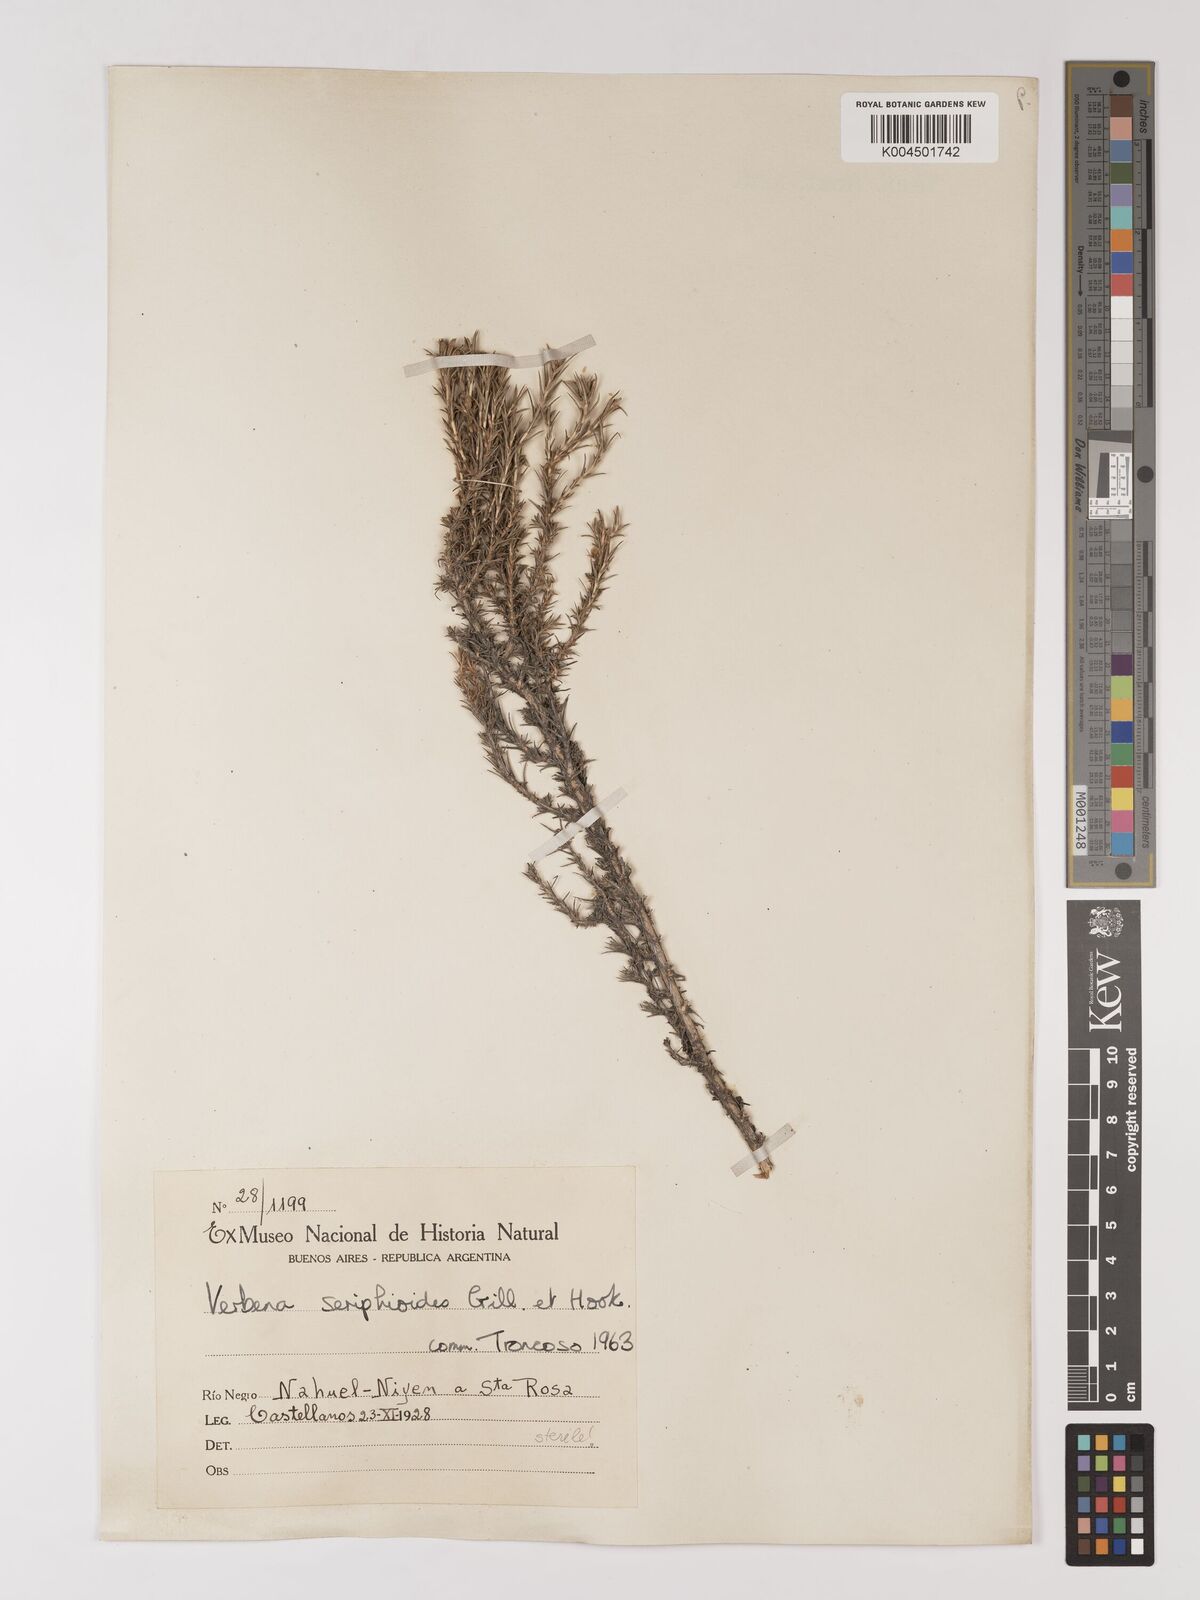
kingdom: Plantae
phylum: Tracheophyta
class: Magnoliopsida
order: Lamiales
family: Verbenaceae
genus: Junellia
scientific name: Junellia seriphioides
